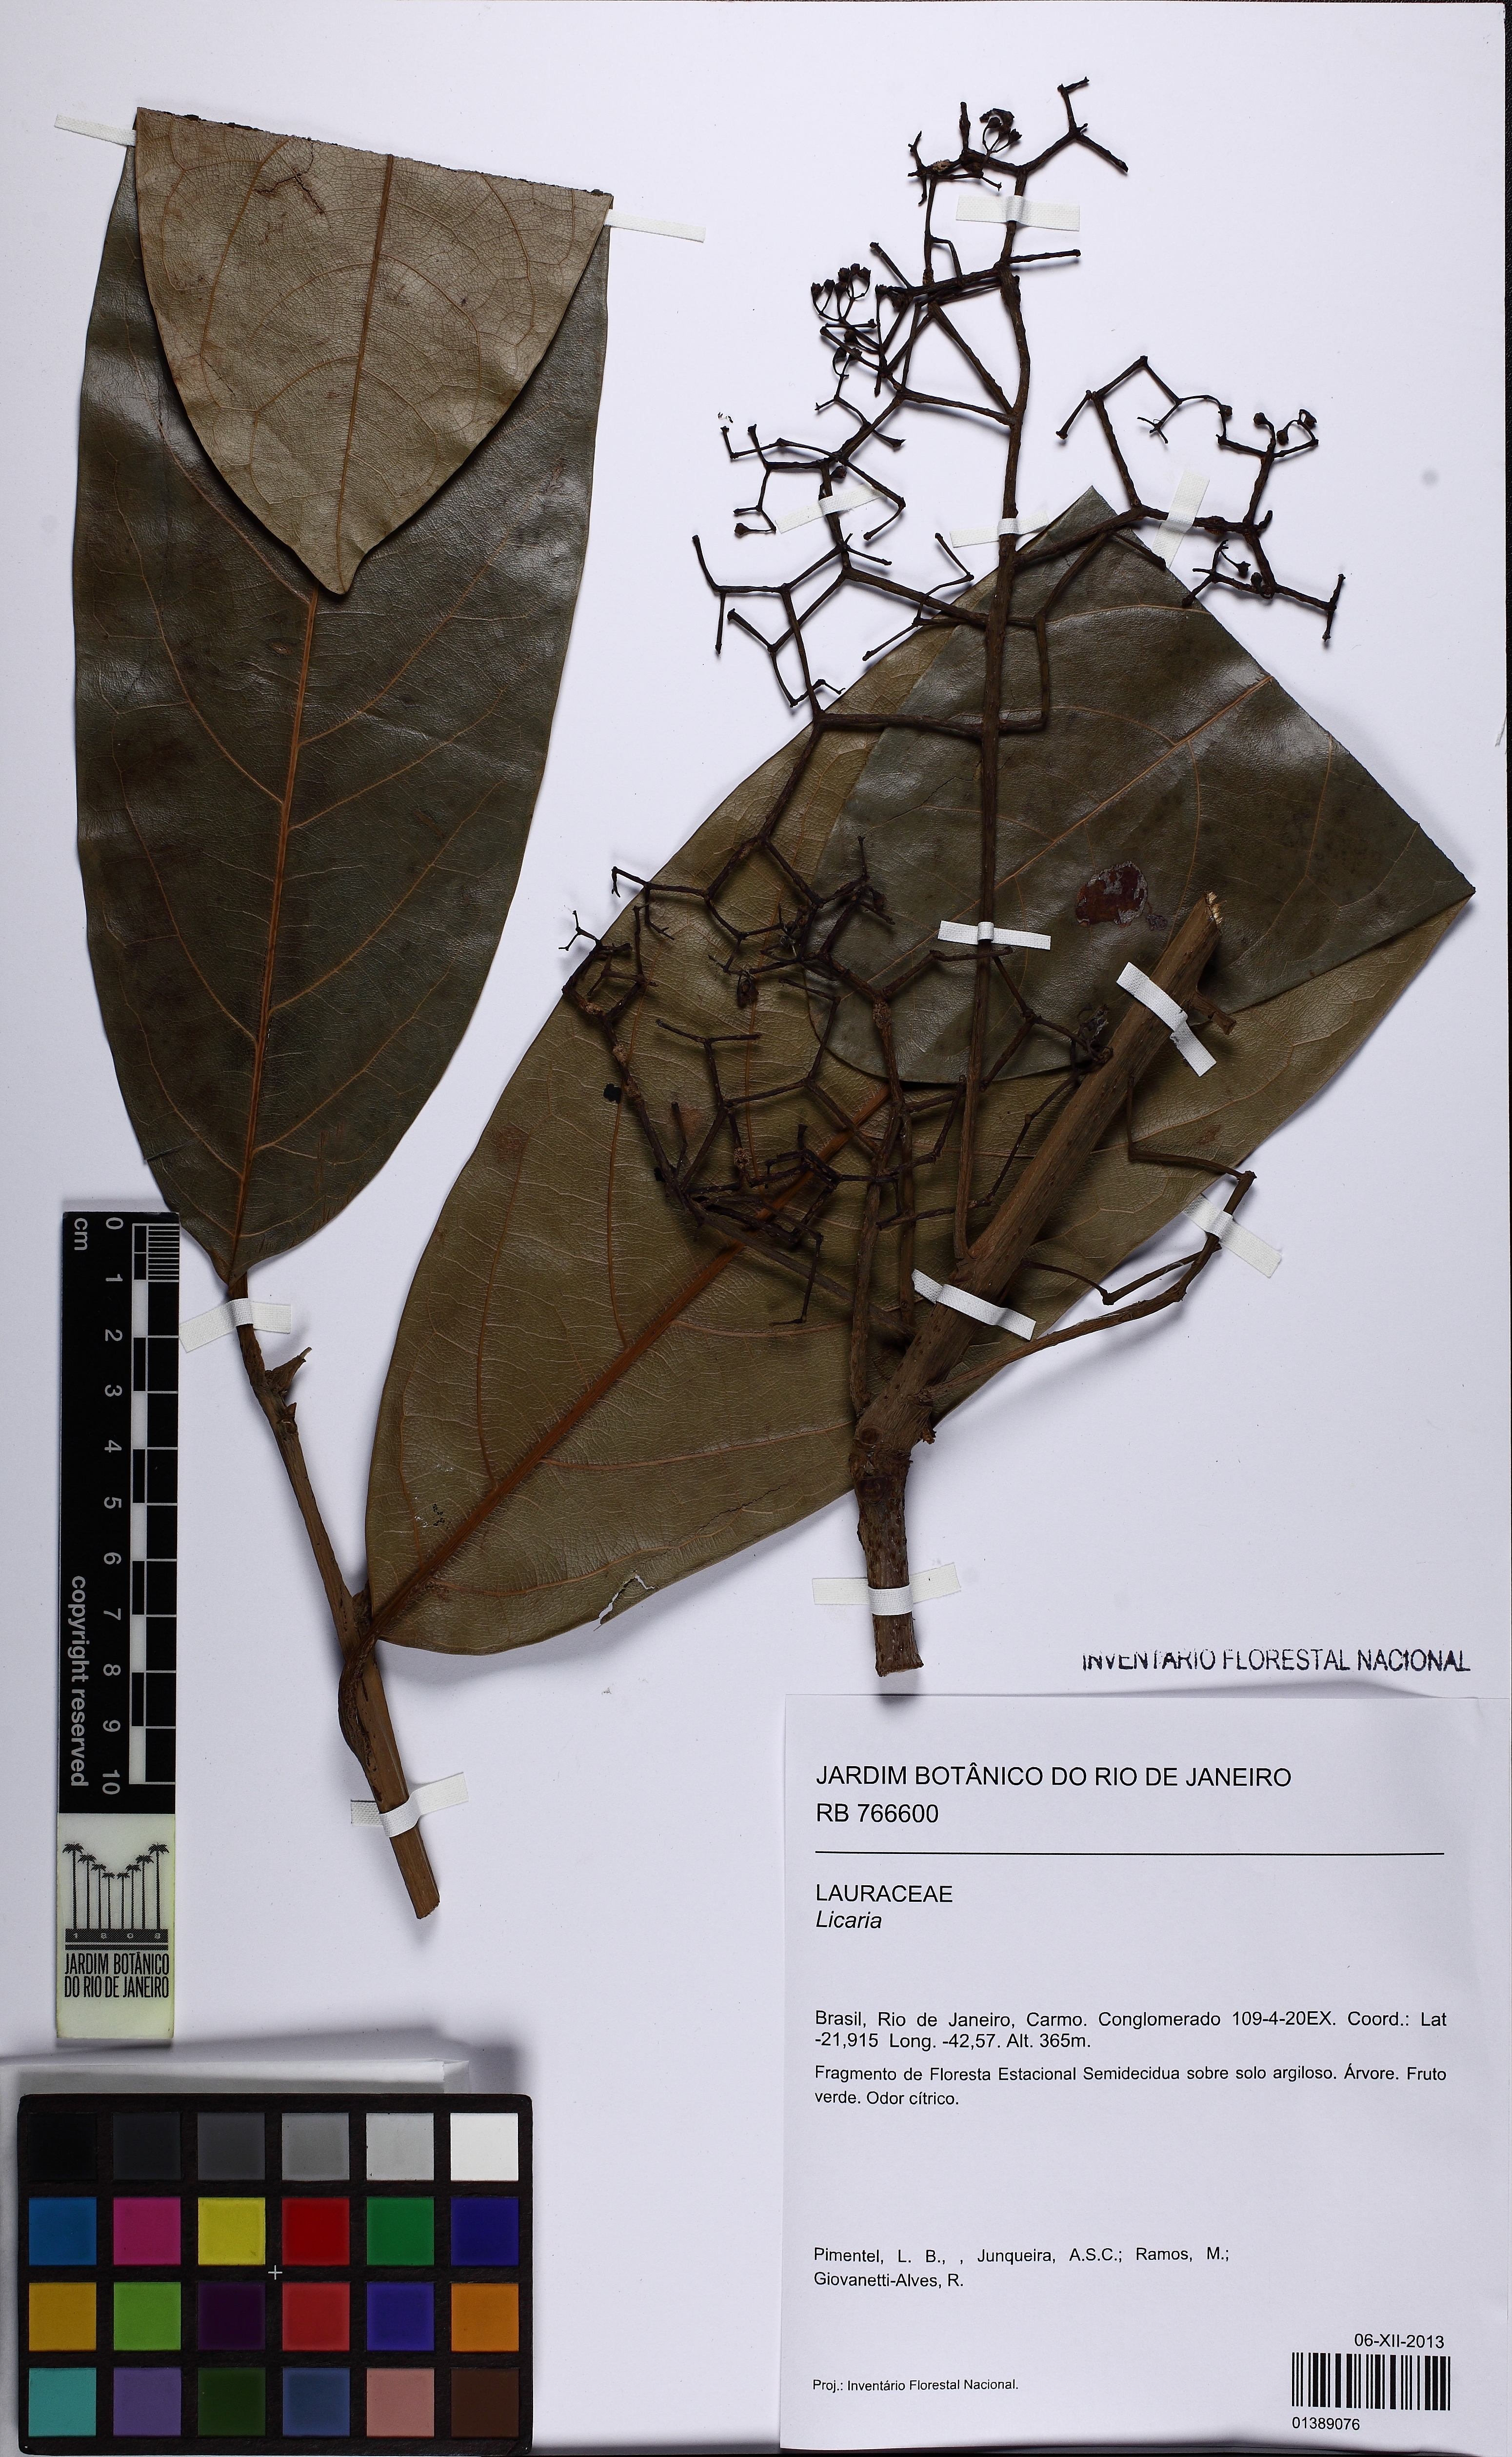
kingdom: Plantae
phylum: Tracheophyta
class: Magnoliopsida
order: Laurales
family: Lauraceae
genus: Licaria
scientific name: Licaria
